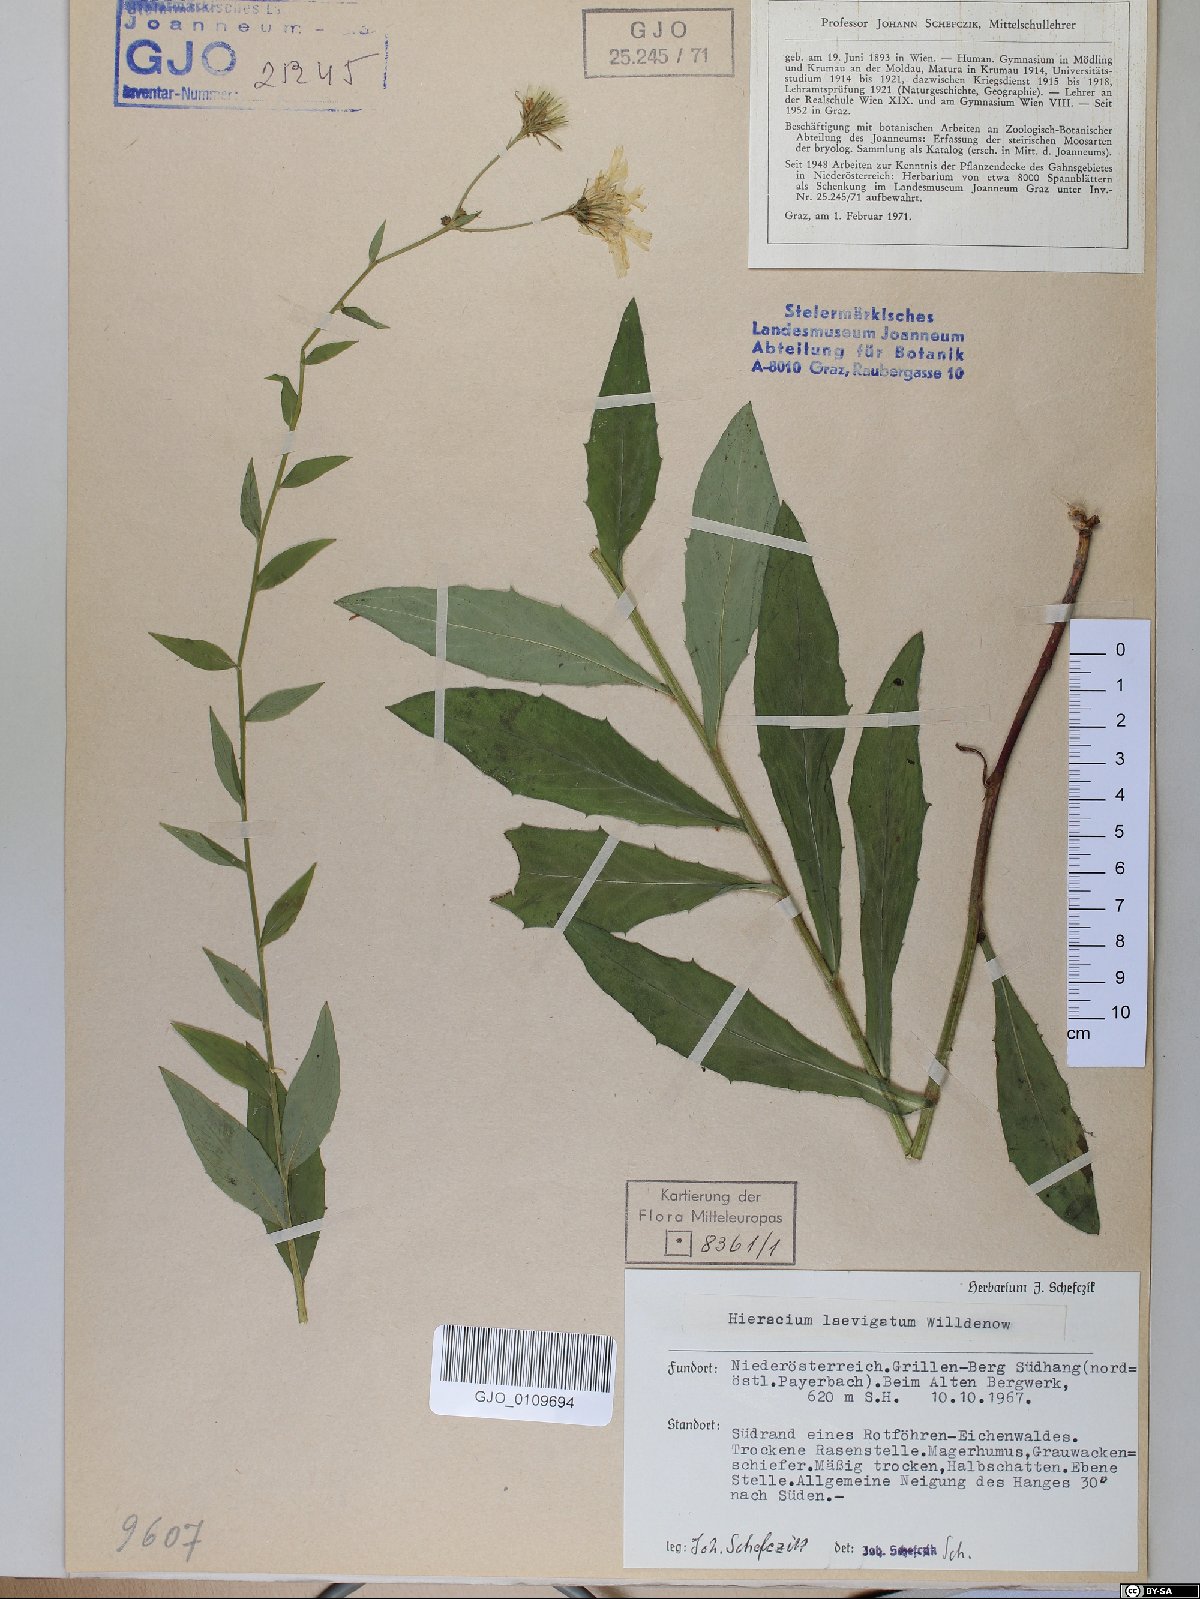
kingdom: Plantae
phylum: Tracheophyta
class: Magnoliopsida
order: Asterales
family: Asteraceae
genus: Hieracium
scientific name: Hieracium laevigatum
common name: Smooth hawkweed
